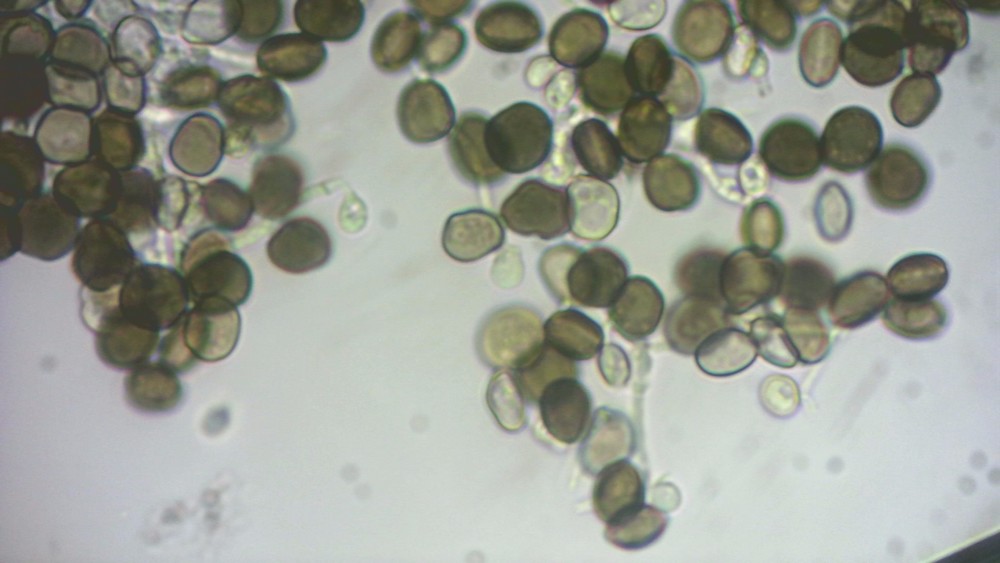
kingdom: Fungi
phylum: Ascomycota
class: Sordariomycetes
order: Xylariales
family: Apiosporaceae
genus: Apiospora
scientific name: Apiospora sphaerosperma
